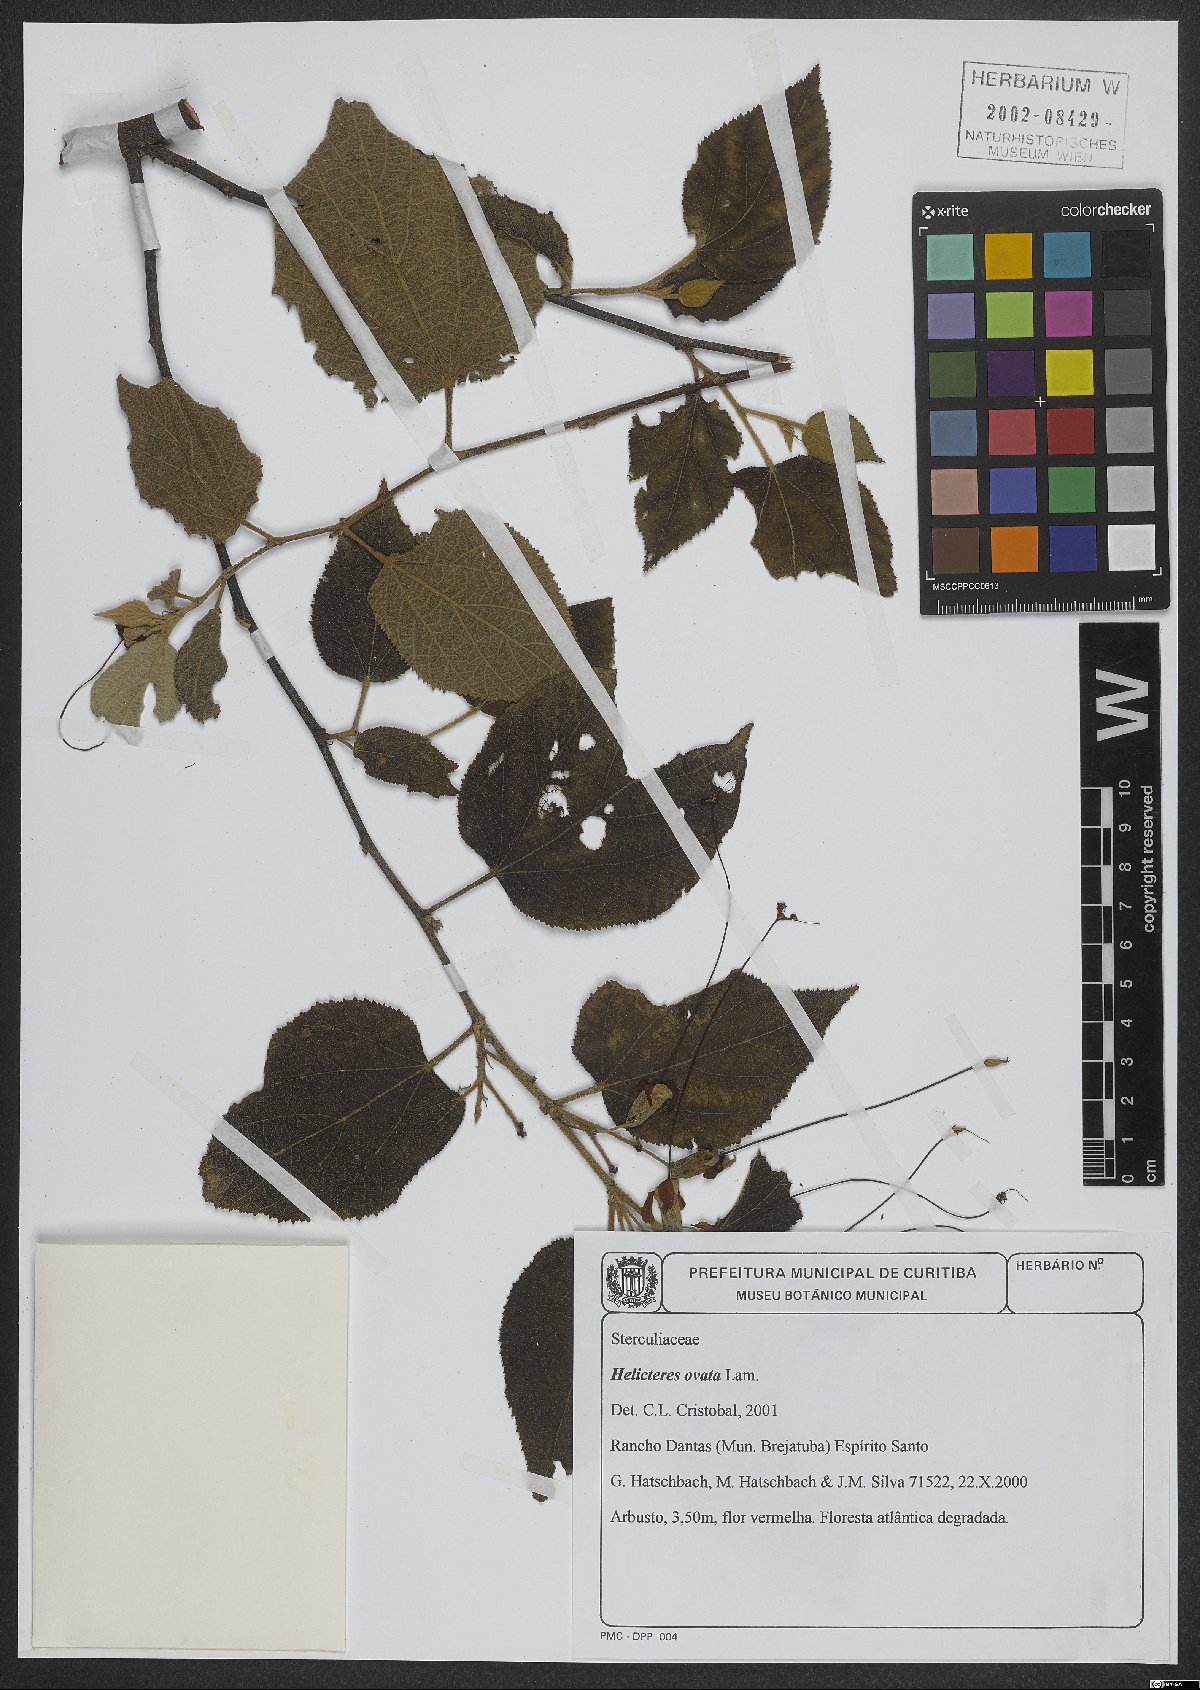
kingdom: Plantae
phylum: Tracheophyta
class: Magnoliopsida
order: Malvales
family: Malvaceae
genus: Helicteres
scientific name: Helicteres ovata
